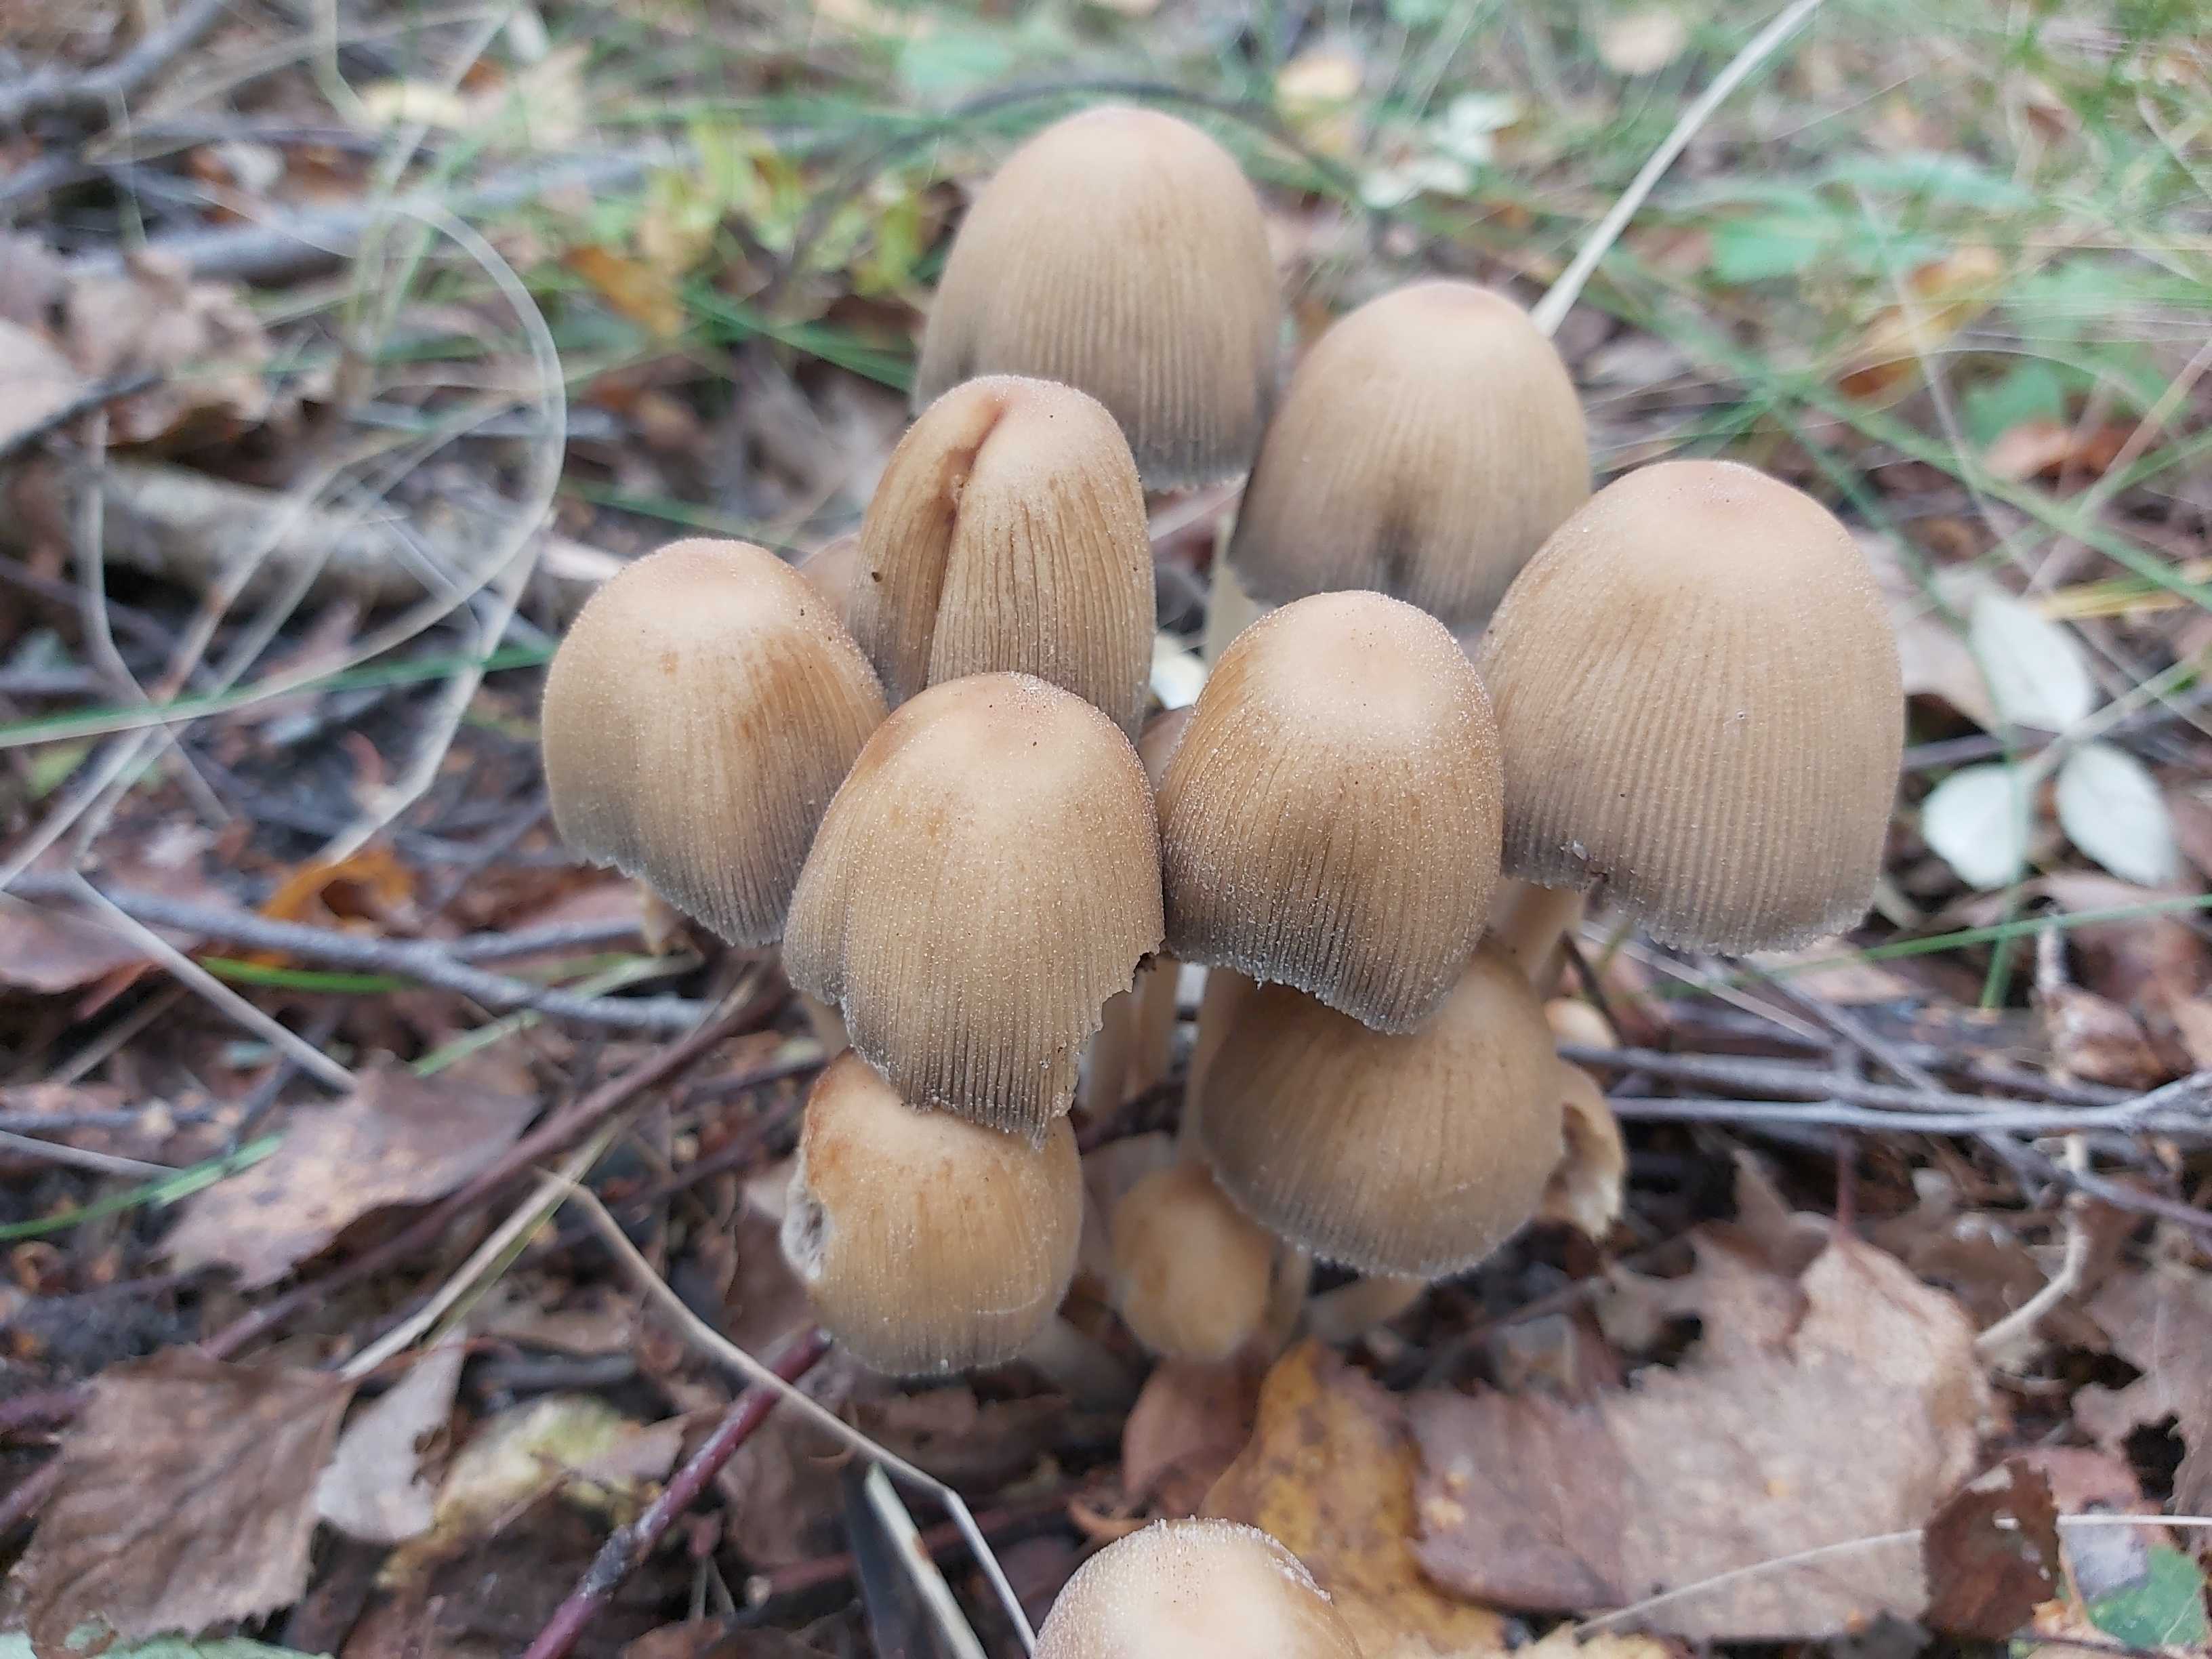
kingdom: Fungi
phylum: Basidiomycota
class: Agaricomycetes
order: Agaricales
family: Psathyrellaceae
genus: Coprinellus
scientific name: Coprinellus micaceus
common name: glimmer-blækhat
